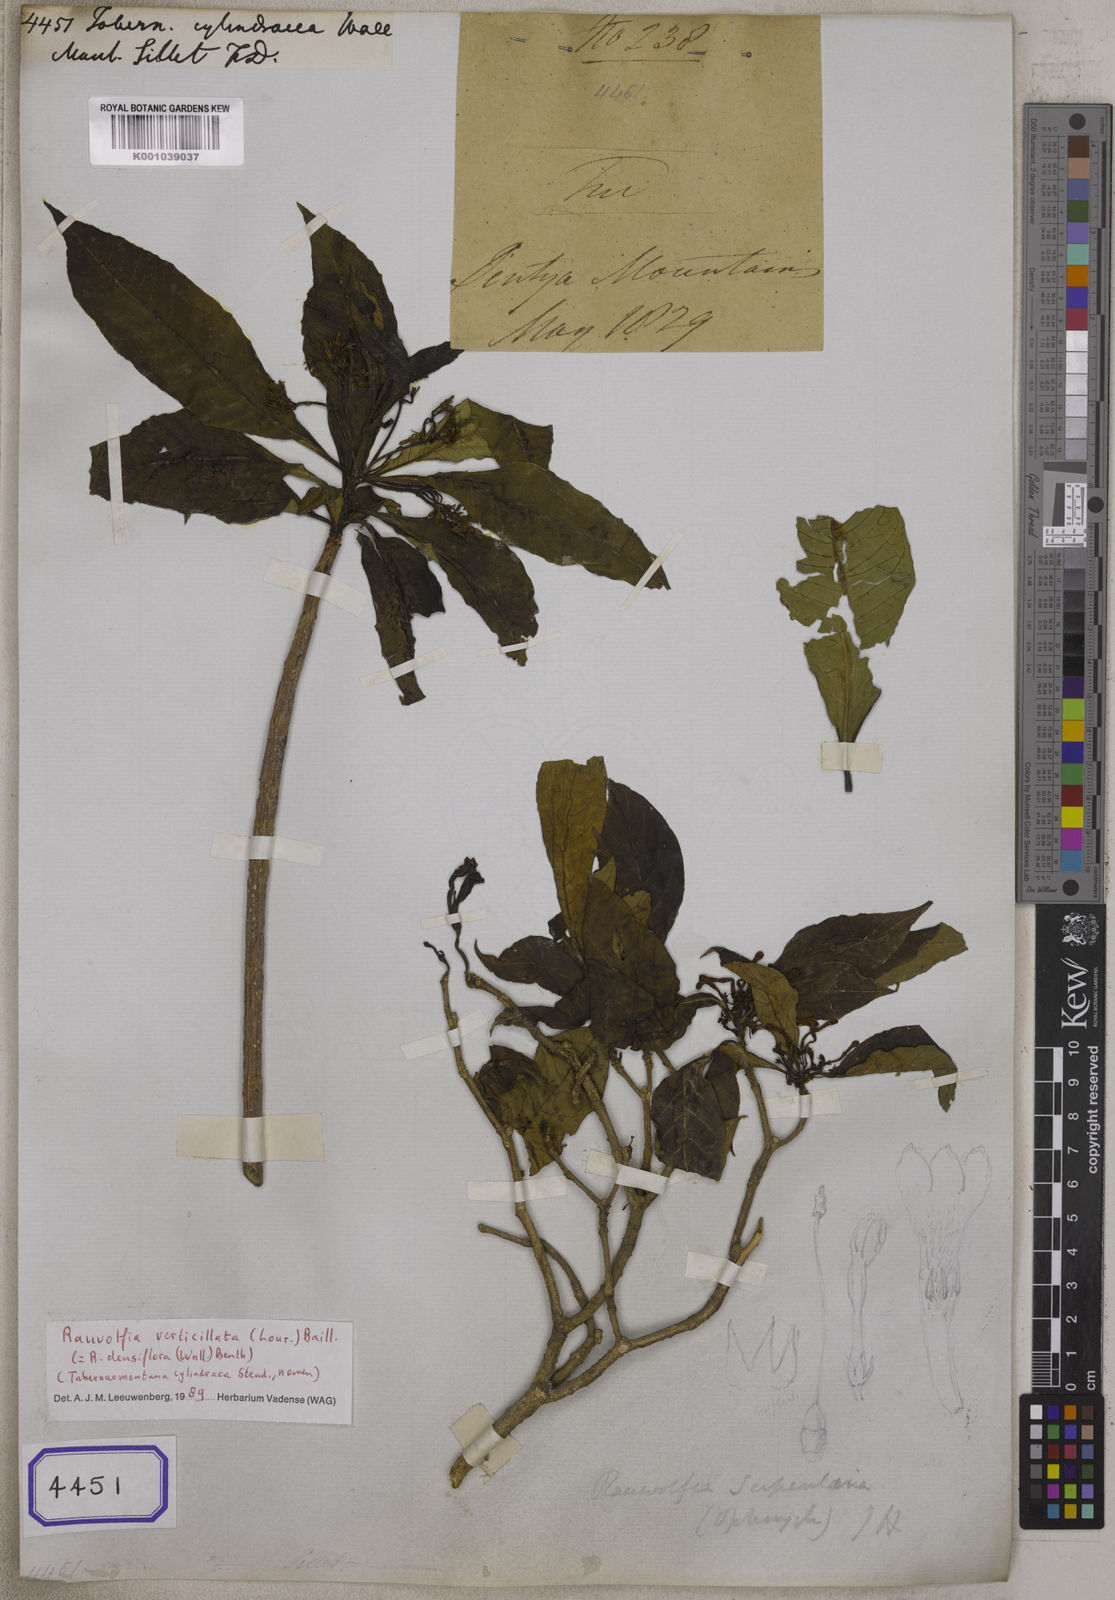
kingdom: Plantae
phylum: Tracheophyta
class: Magnoliopsida
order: Gentianales
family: Apocynaceae
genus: Tabernaemontana
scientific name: Tabernaemontana
